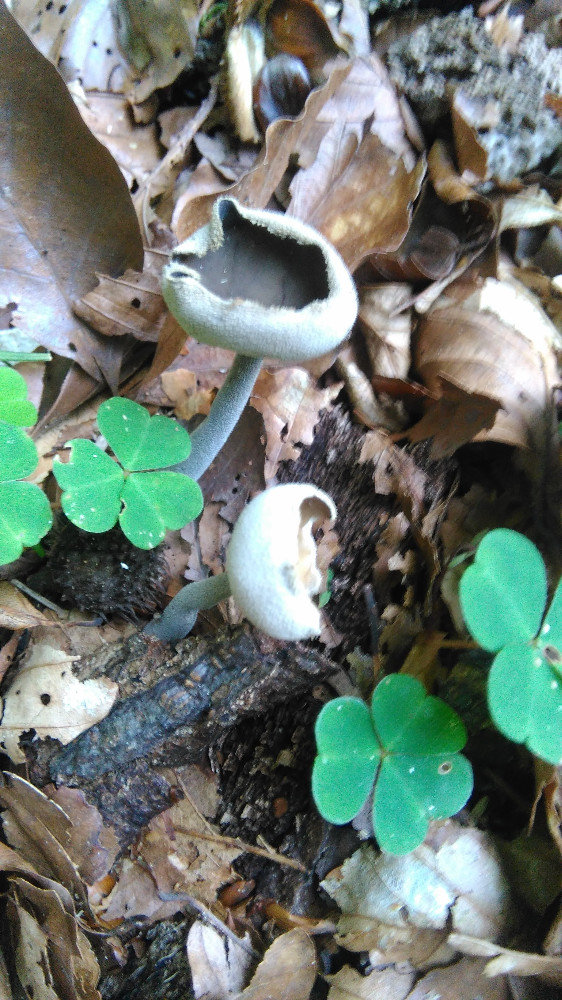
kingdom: Fungi
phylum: Ascomycota
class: Pezizomycetes
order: Pezizales
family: Helvellaceae
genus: Helvella
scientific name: Helvella
